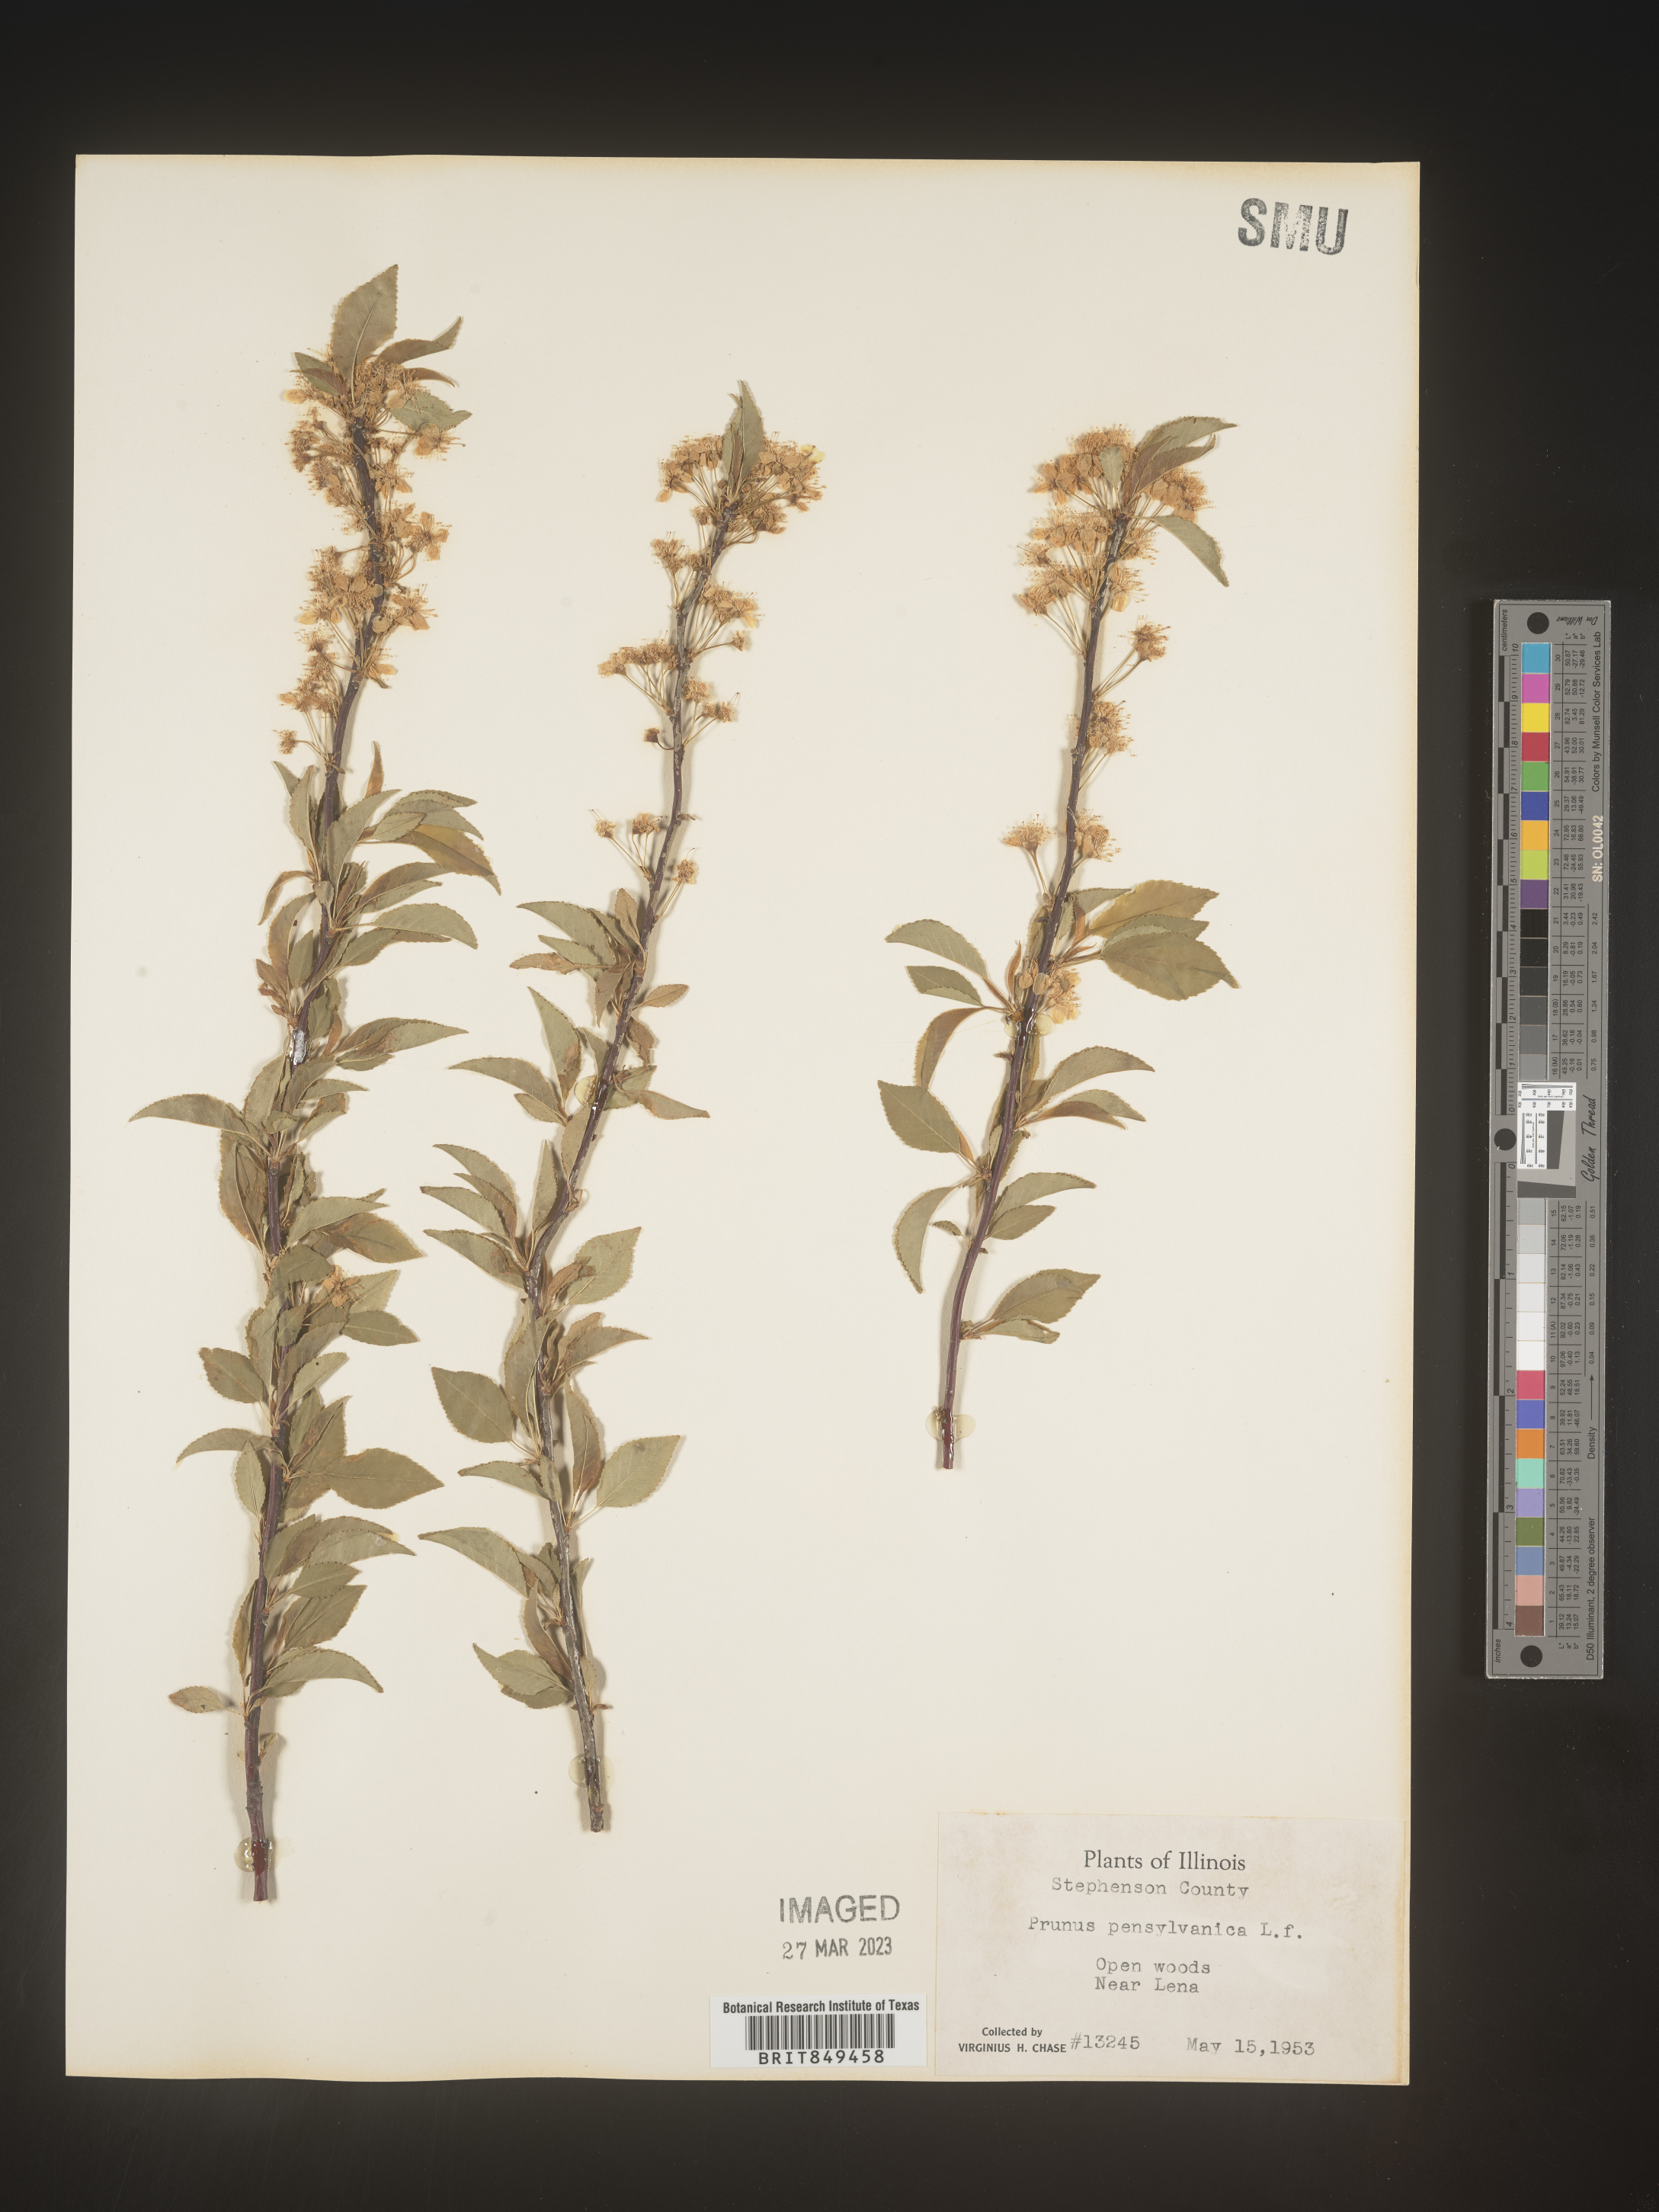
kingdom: Plantae
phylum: Tracheophyta
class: Magnoliopsida
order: Rosales
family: Rosaceae
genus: Prunus
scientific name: Prunus pensylvanica
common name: Pin cherry
